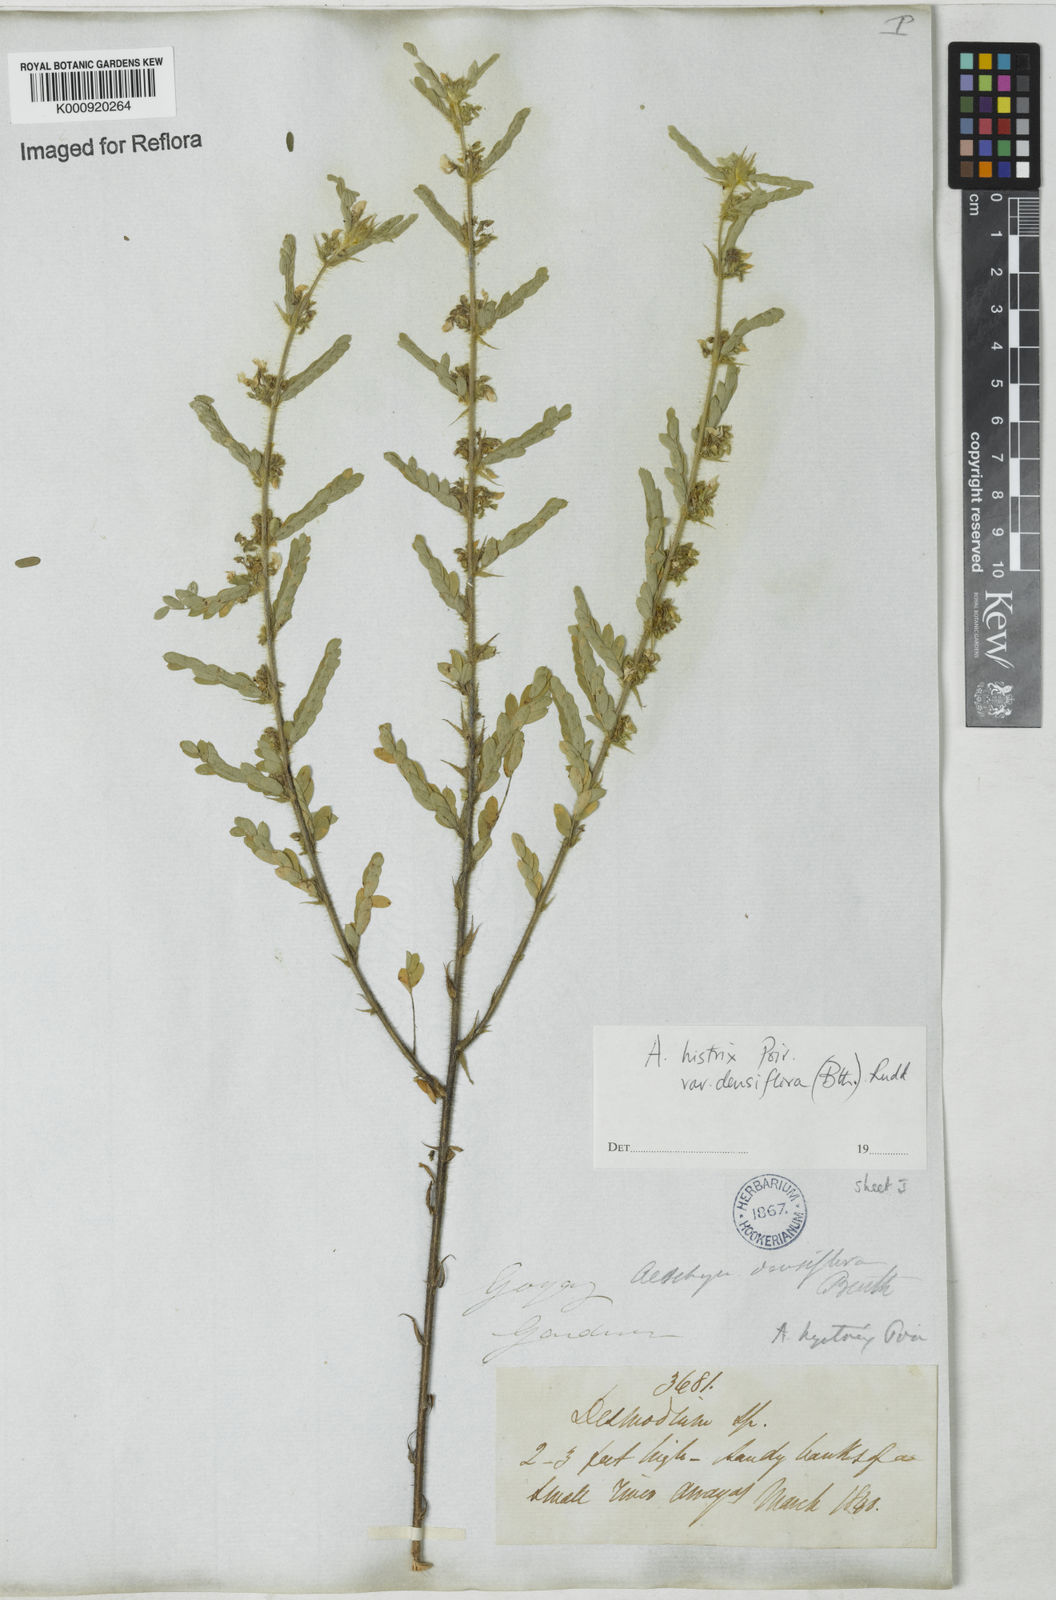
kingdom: Plantae
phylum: Tracheophyta
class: Magnoliopsida
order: Fabales
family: Fabaceae
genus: Ctenodon
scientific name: Ctenodon histrix
